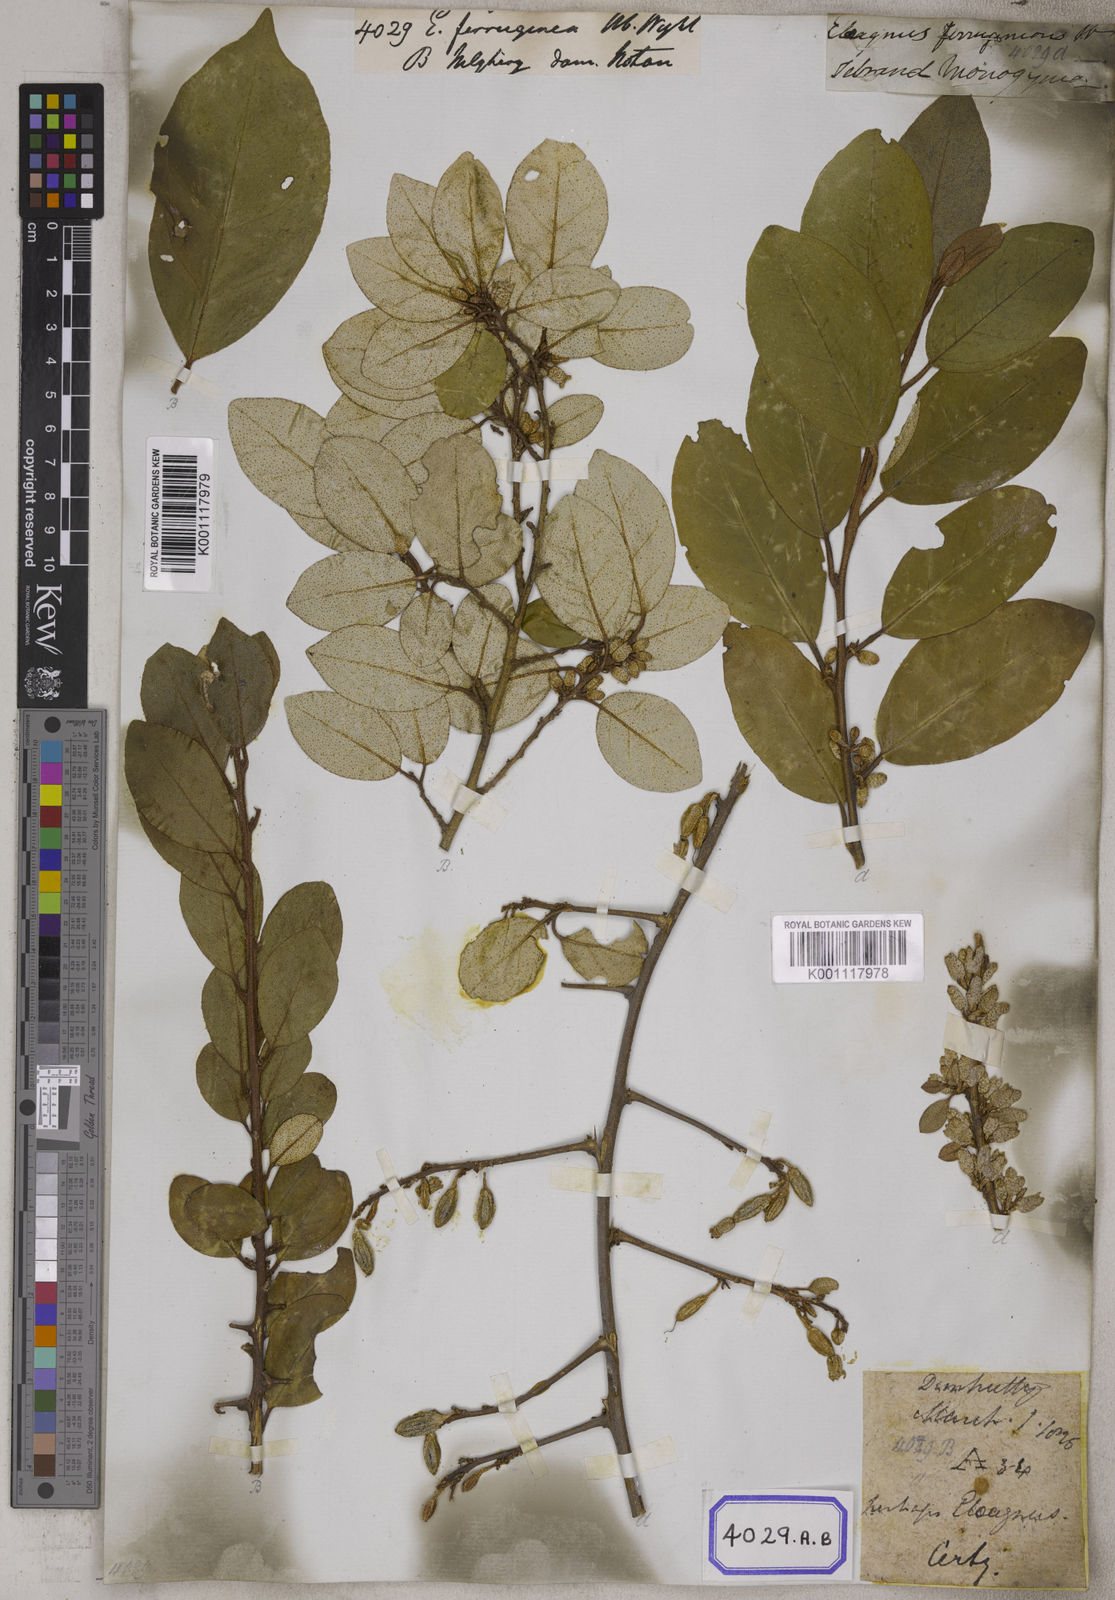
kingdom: Plantae
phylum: Tracheophyta
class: Magnoliopsida
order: Rosales
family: Elaeagnaceae
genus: Elaeagnus
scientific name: Elaeagnus triflora
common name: Millaa millaa-vine
